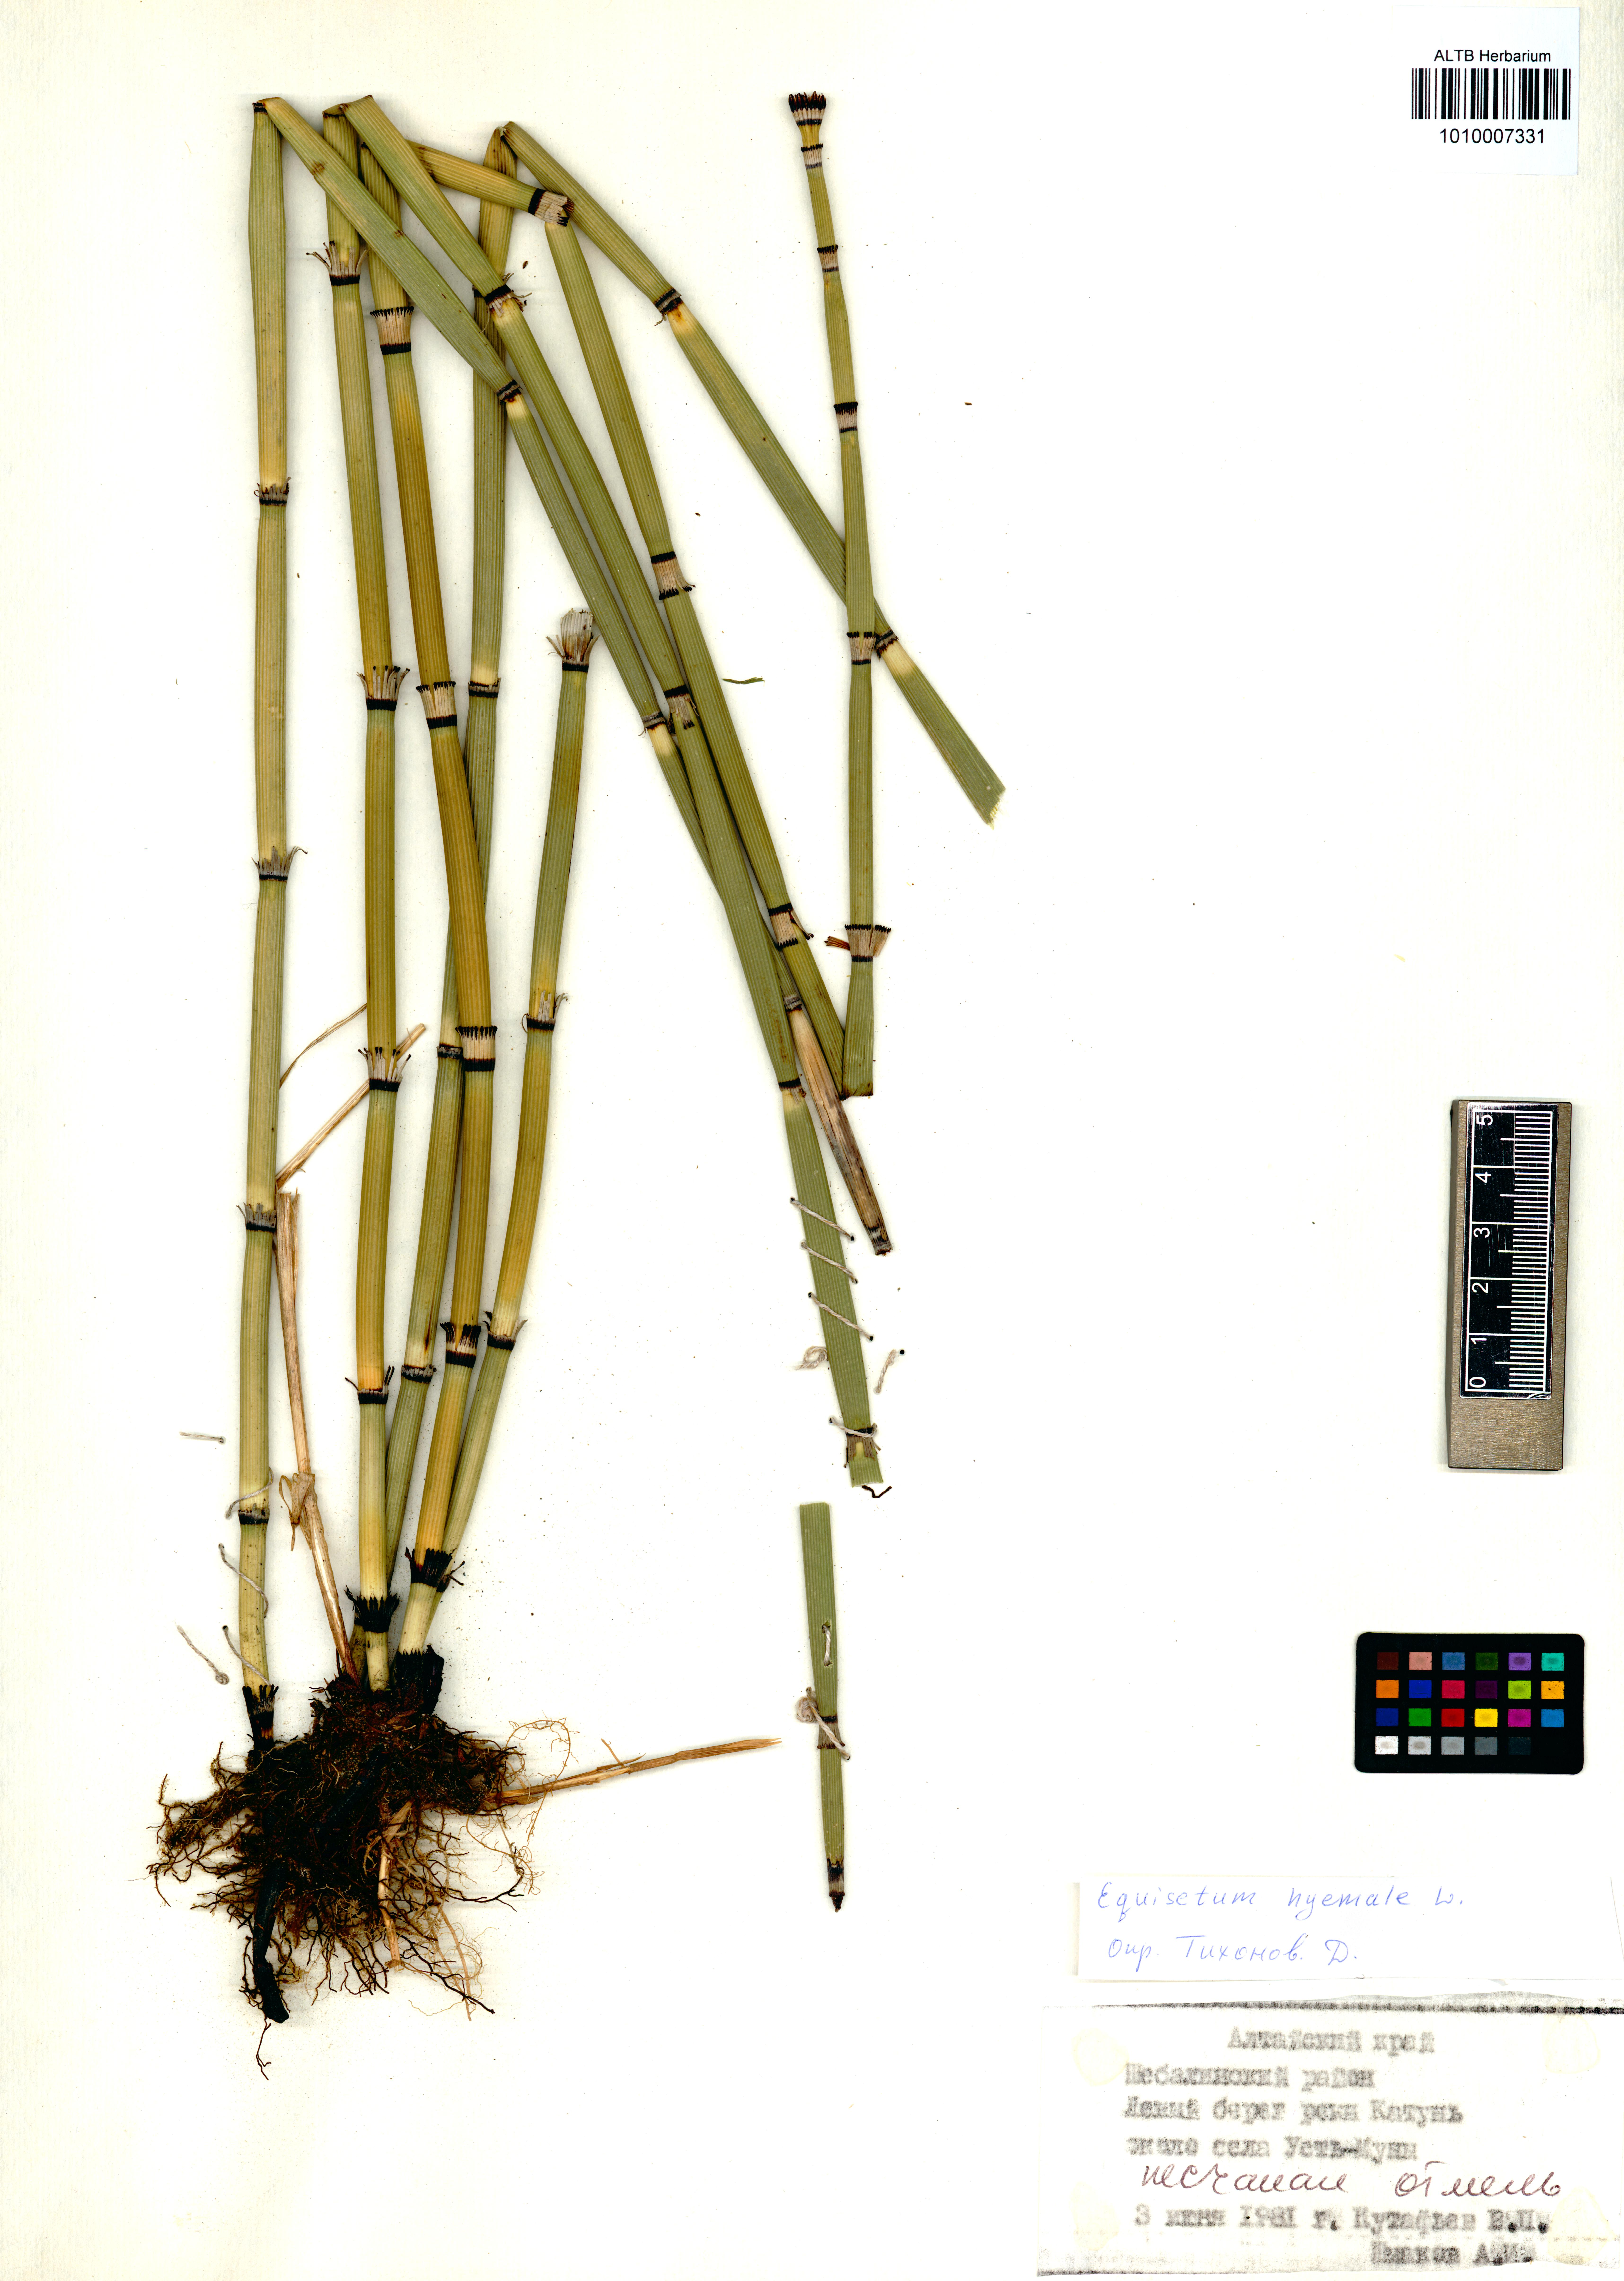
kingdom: Plantae
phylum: Tracheophyta
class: Polypodiopsida
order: Equisetales
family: Equisetaceae
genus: Equisetum
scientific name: Equisetum hyemale
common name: Rough horsetail
